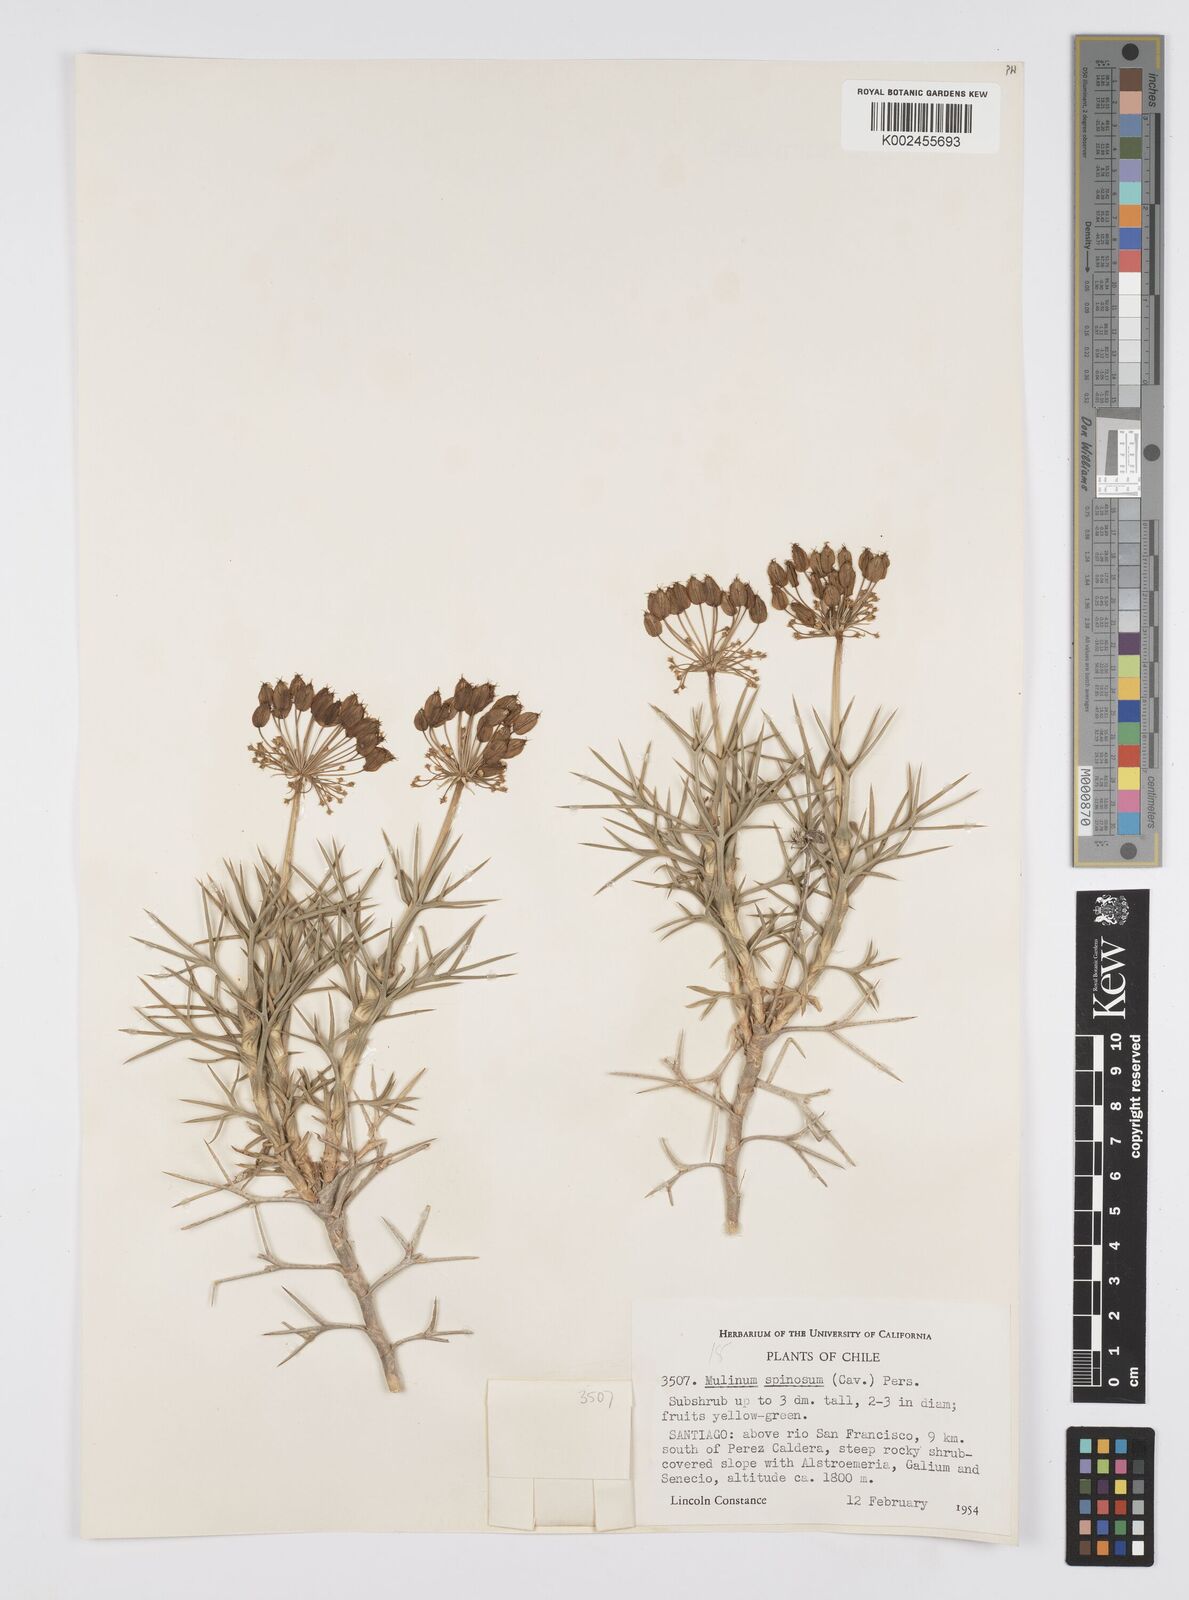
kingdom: Plantae
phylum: Tracheophyta
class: Magnoliopsida
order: Apiales
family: Apiaceae
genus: Azorella
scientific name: Azorella prolifera
